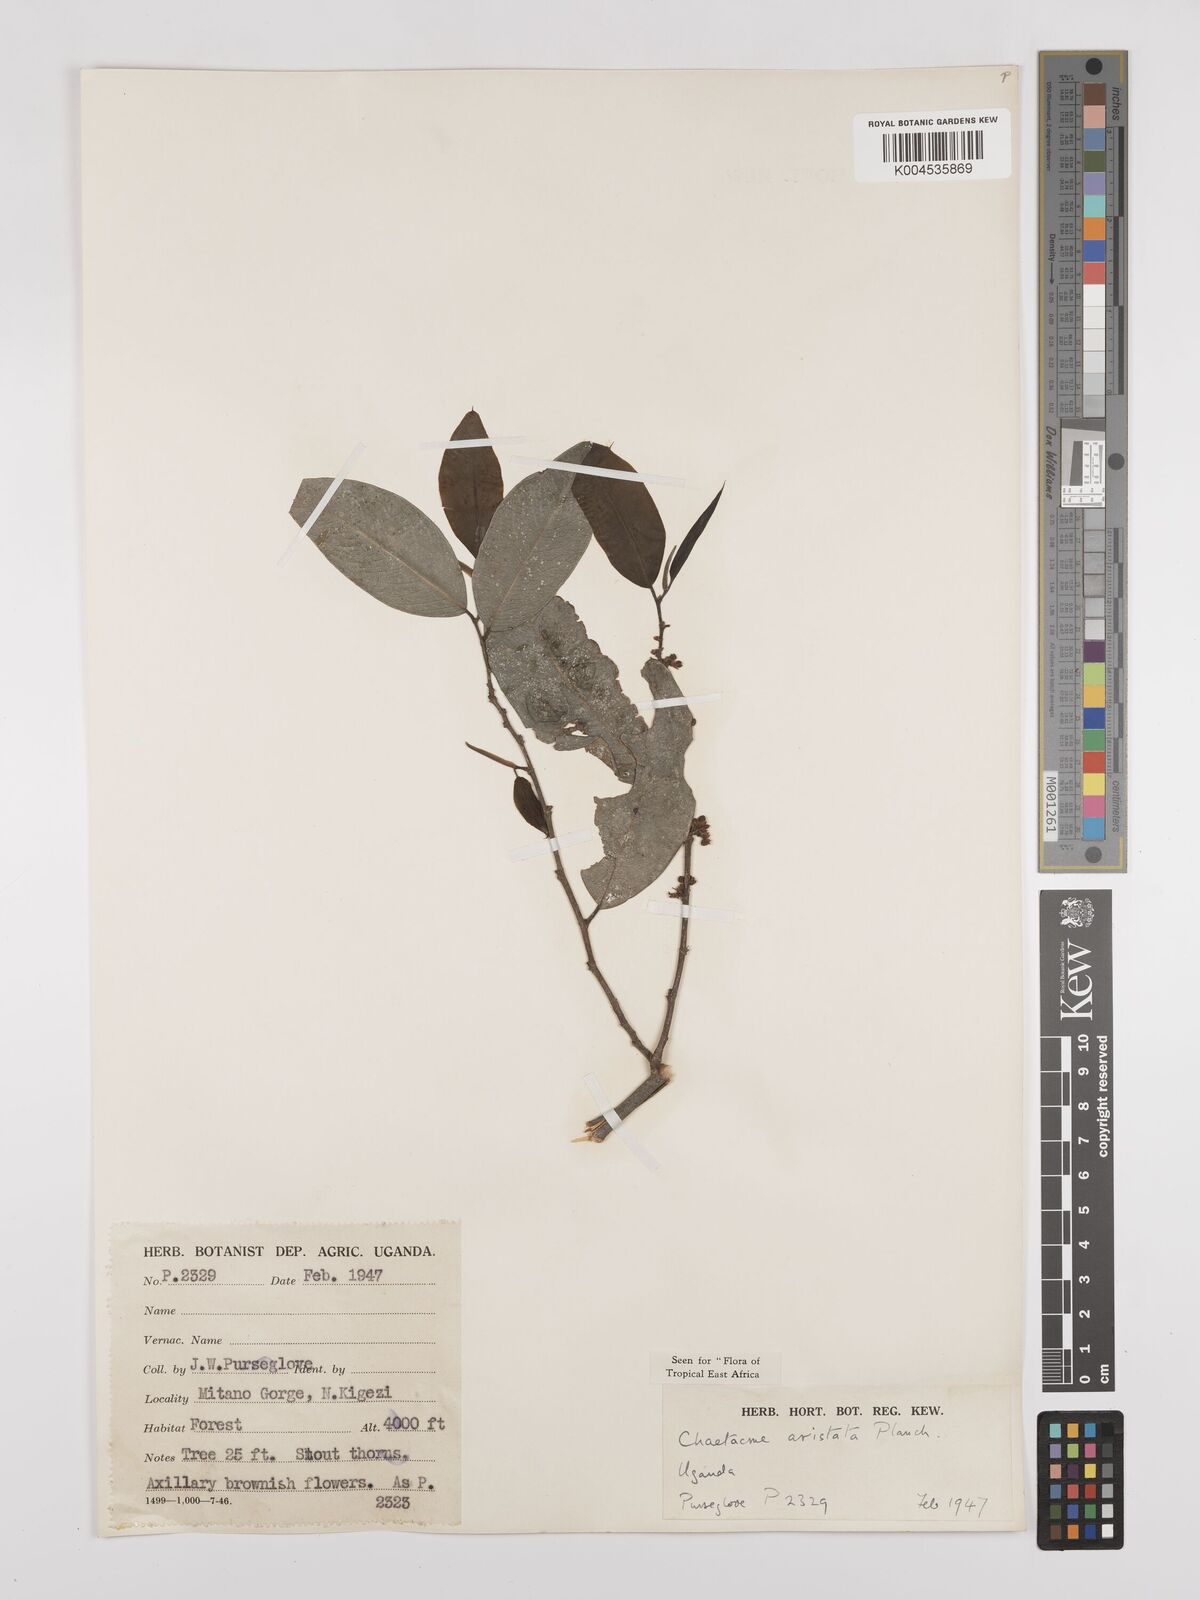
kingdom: Plantae
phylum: Tracheophyta
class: Magnoliopsida
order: Rosales
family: Cannabaceae
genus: Chaetachme
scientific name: Chaetachme aristata
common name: Thorny elm
